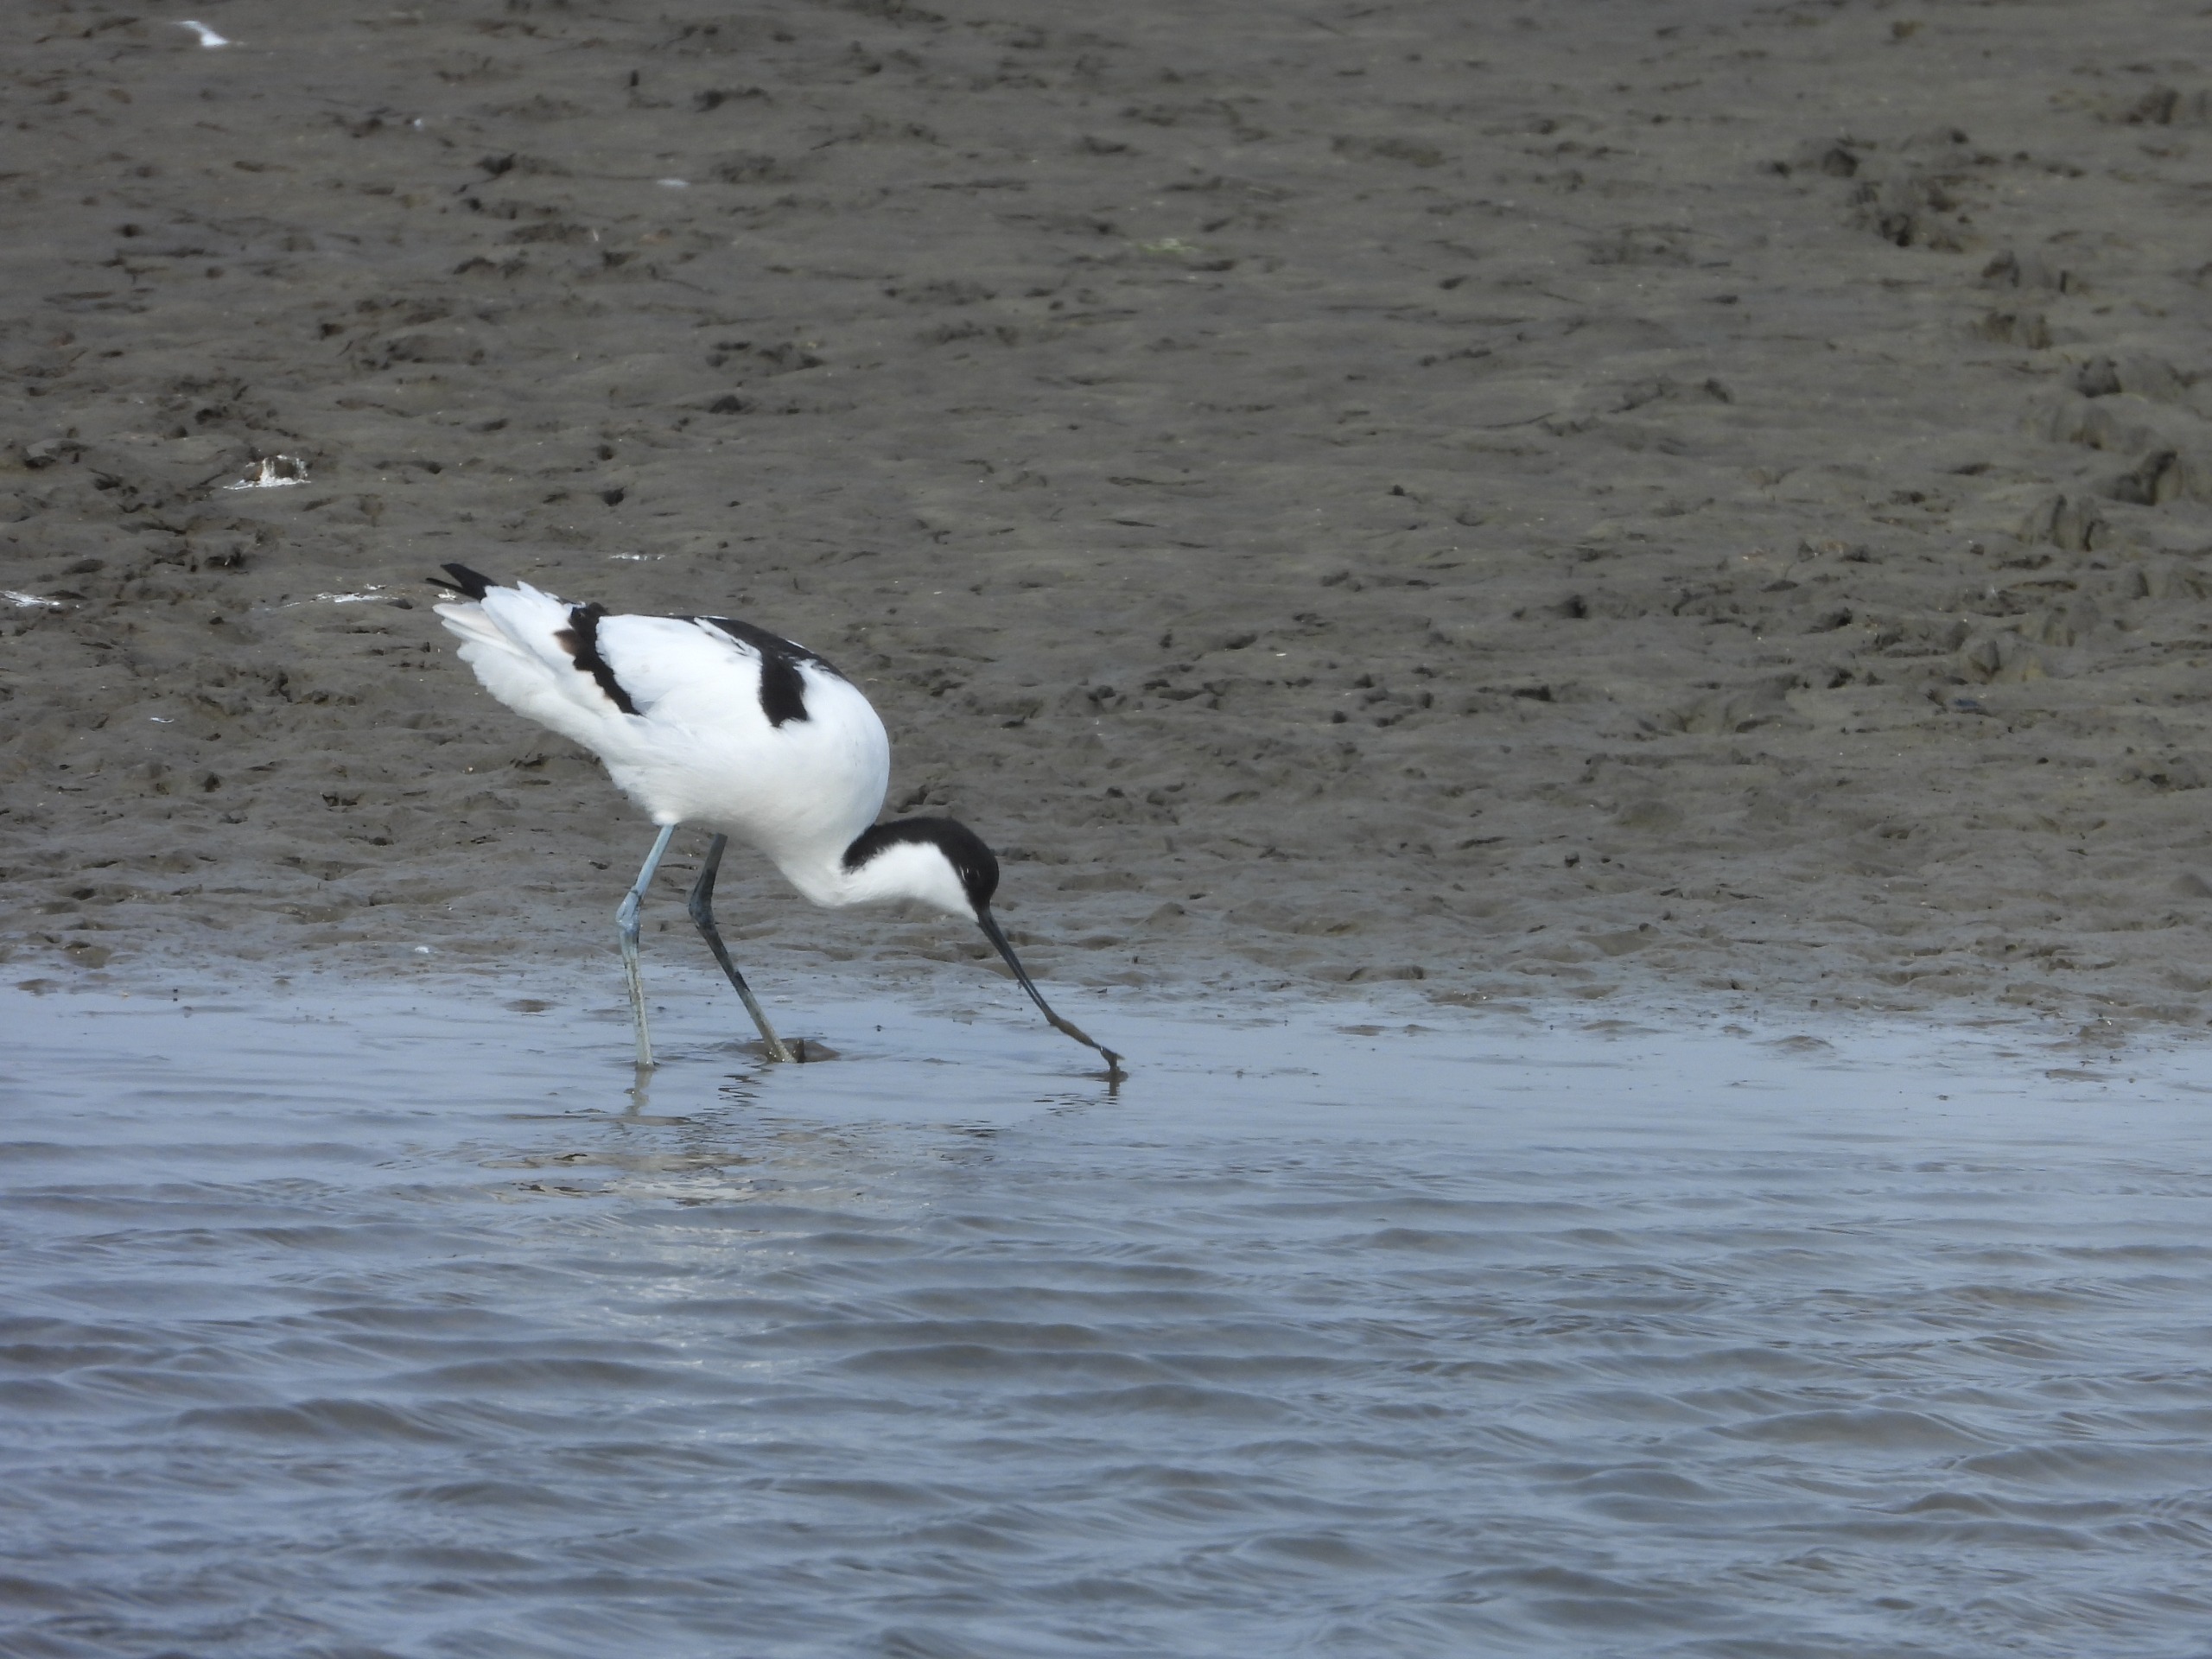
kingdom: Animalia
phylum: Chordata
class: Aves
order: Charadriiformes
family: Recurvirostridae
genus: Recurvirostra
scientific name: Recurvirostra avosetta
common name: Klyde
